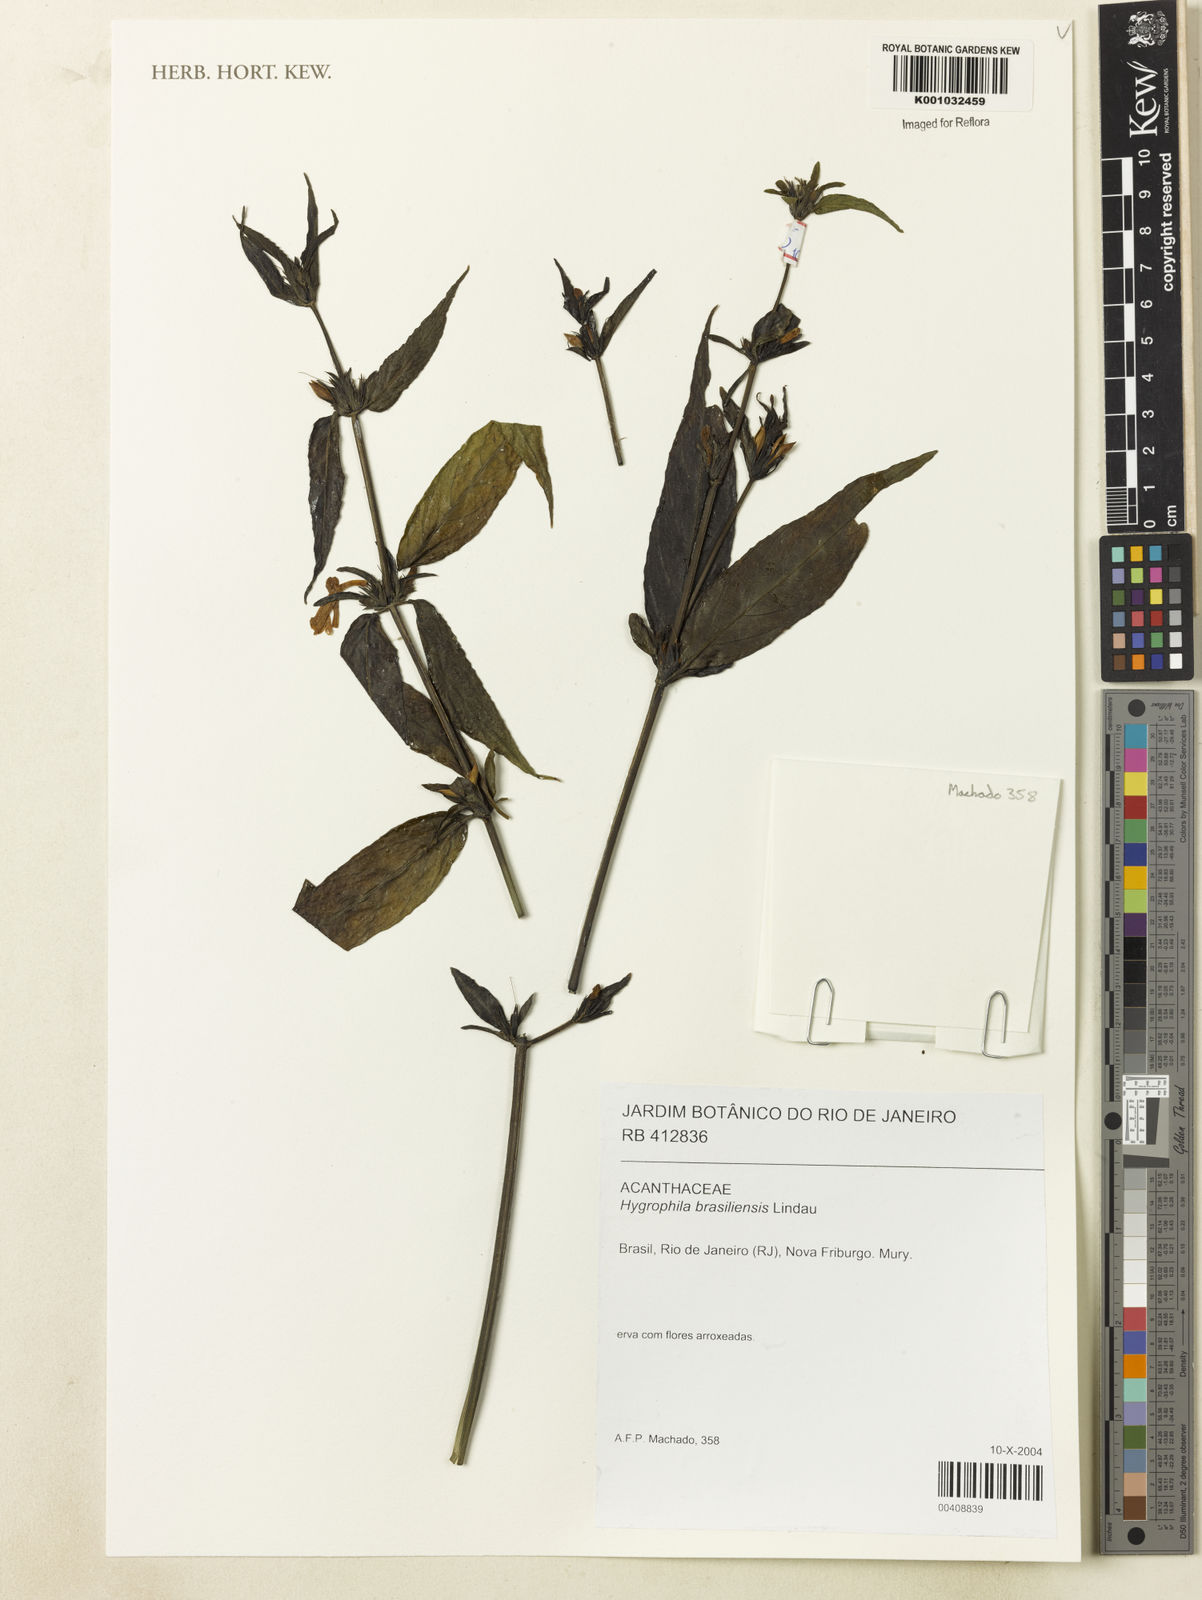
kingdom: Plantae
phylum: Tracheophyta
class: Magnoliopsida
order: Lamiales
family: Acanthaceae
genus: Hygrophila
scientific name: Hygrophila costata
